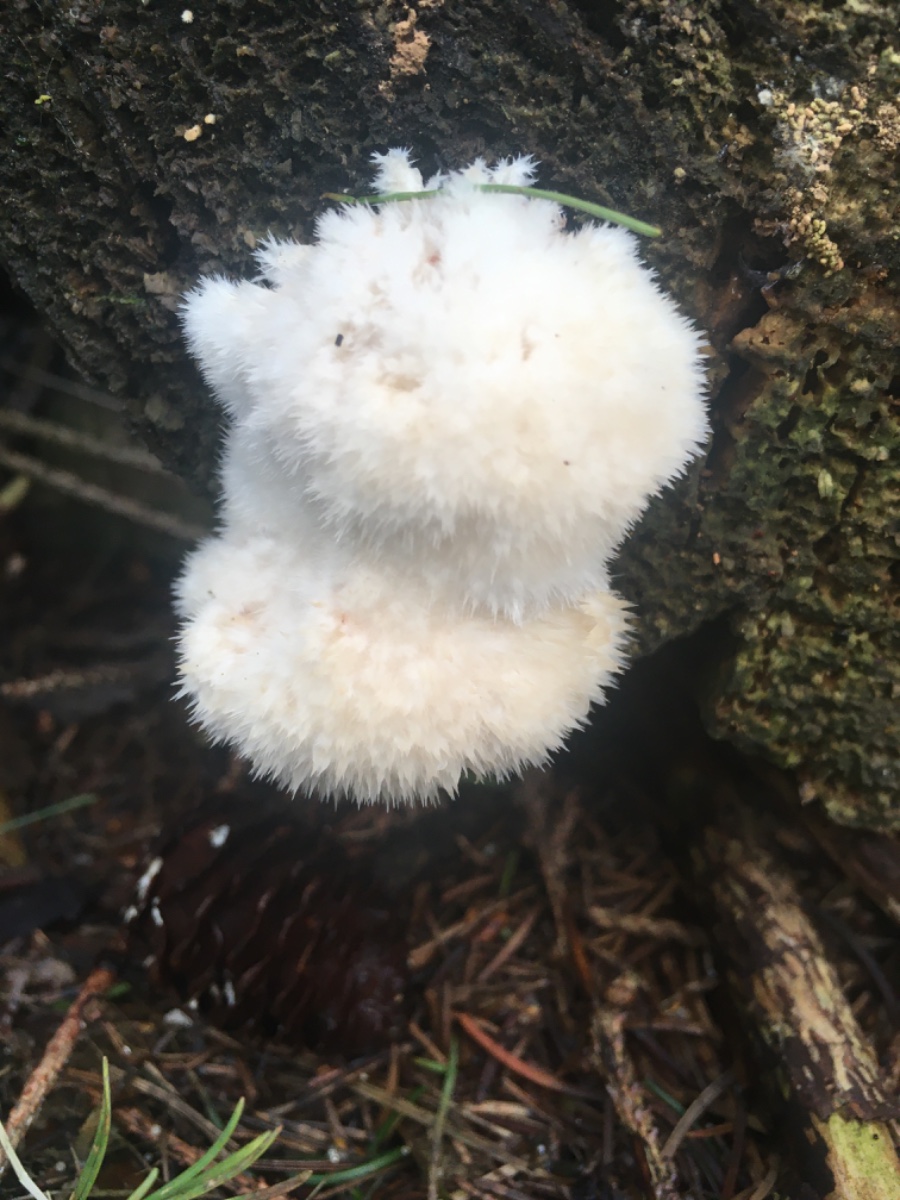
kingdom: Fungi
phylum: Basidiomycota
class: Agaricomycetes
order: Polyporales
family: Dacryobolaceae
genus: Postia
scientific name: Postia ptychogaster
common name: støvende kødporesvamp
